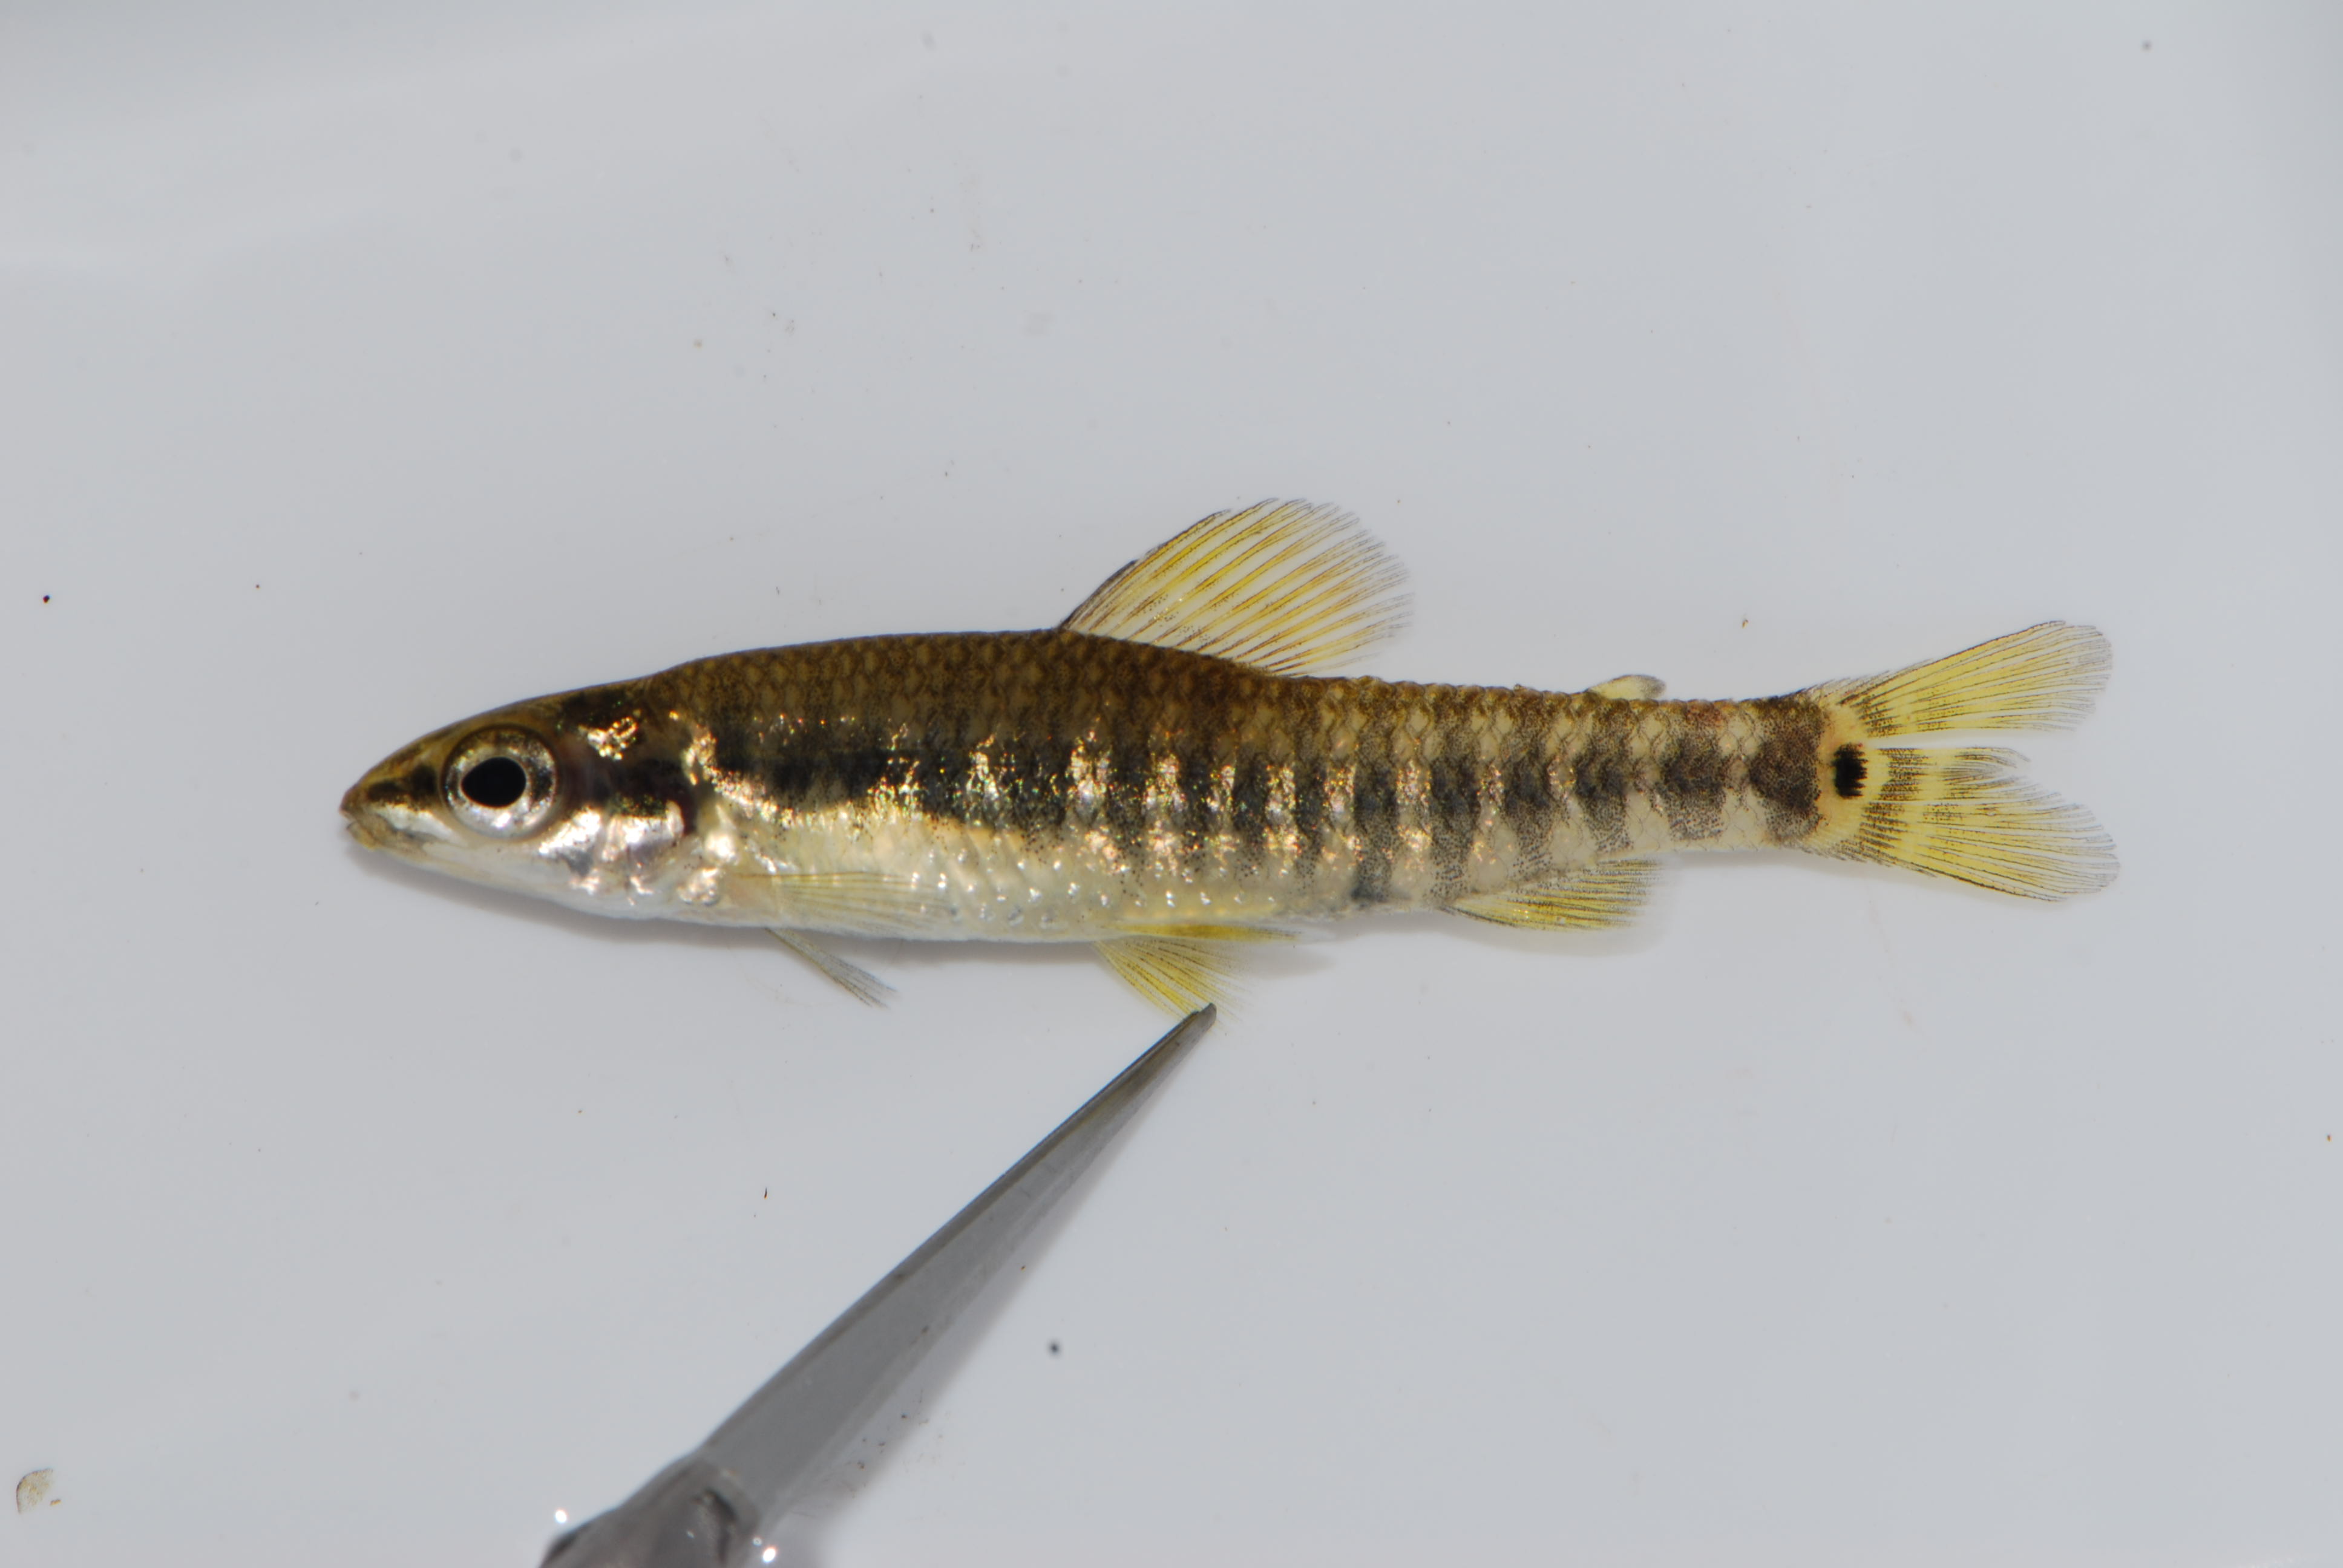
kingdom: Animalia
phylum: Chordata
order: Characiformes
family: Distichodontidae
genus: Nannocharax
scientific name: Nannocharax multifasciatus
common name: Multibar citharine
